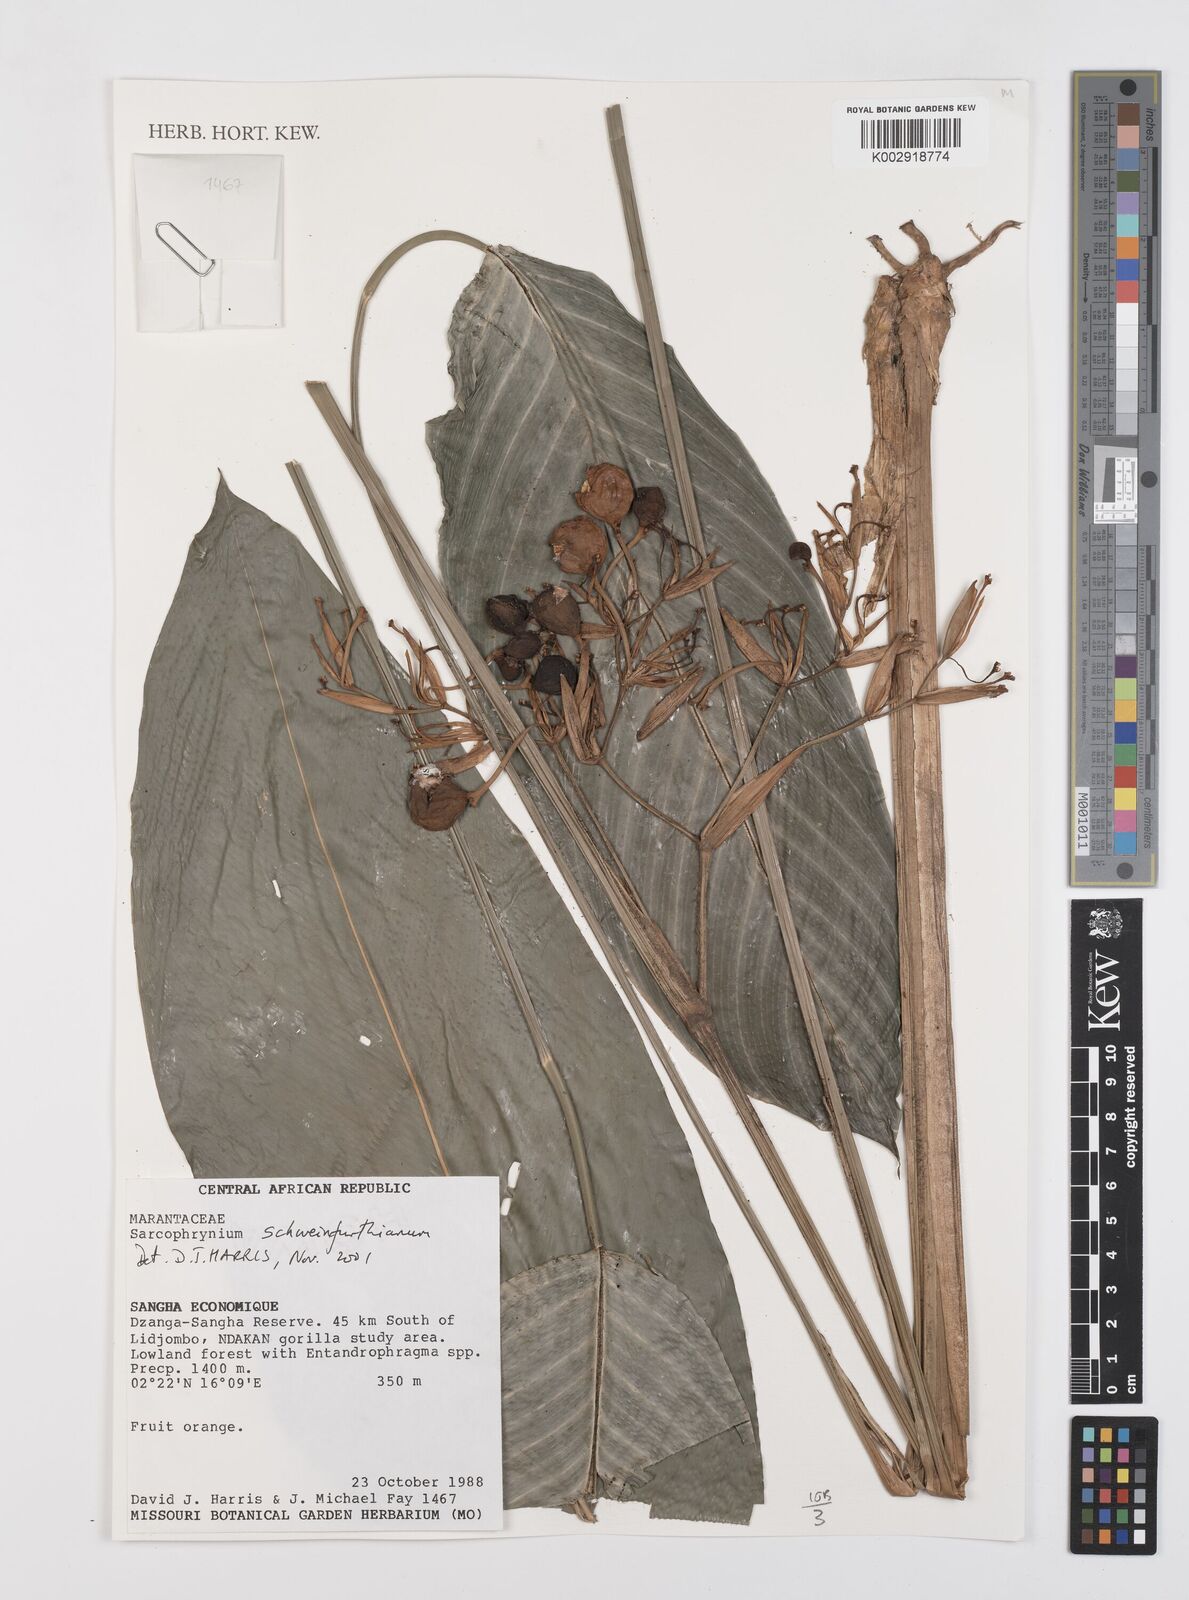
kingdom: Plantae
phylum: Tracheophyta
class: Liliopsida
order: Zingiberales
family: Marantaceae
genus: Sarcophrynium
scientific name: Sarcophrynium schweinfurthianum
